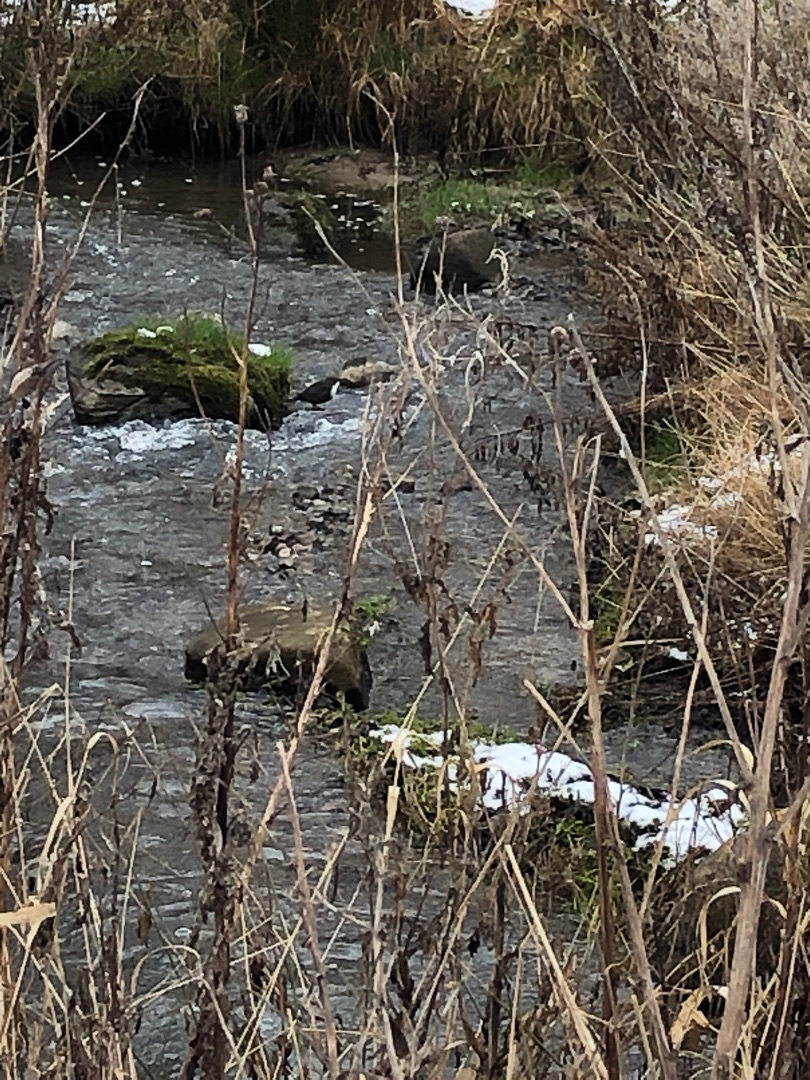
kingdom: Animalia
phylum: Chordata
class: Aves
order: Passeriformes
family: Cinclidae
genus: Cinclus
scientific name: Cinclus cinclus
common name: Vandstær
